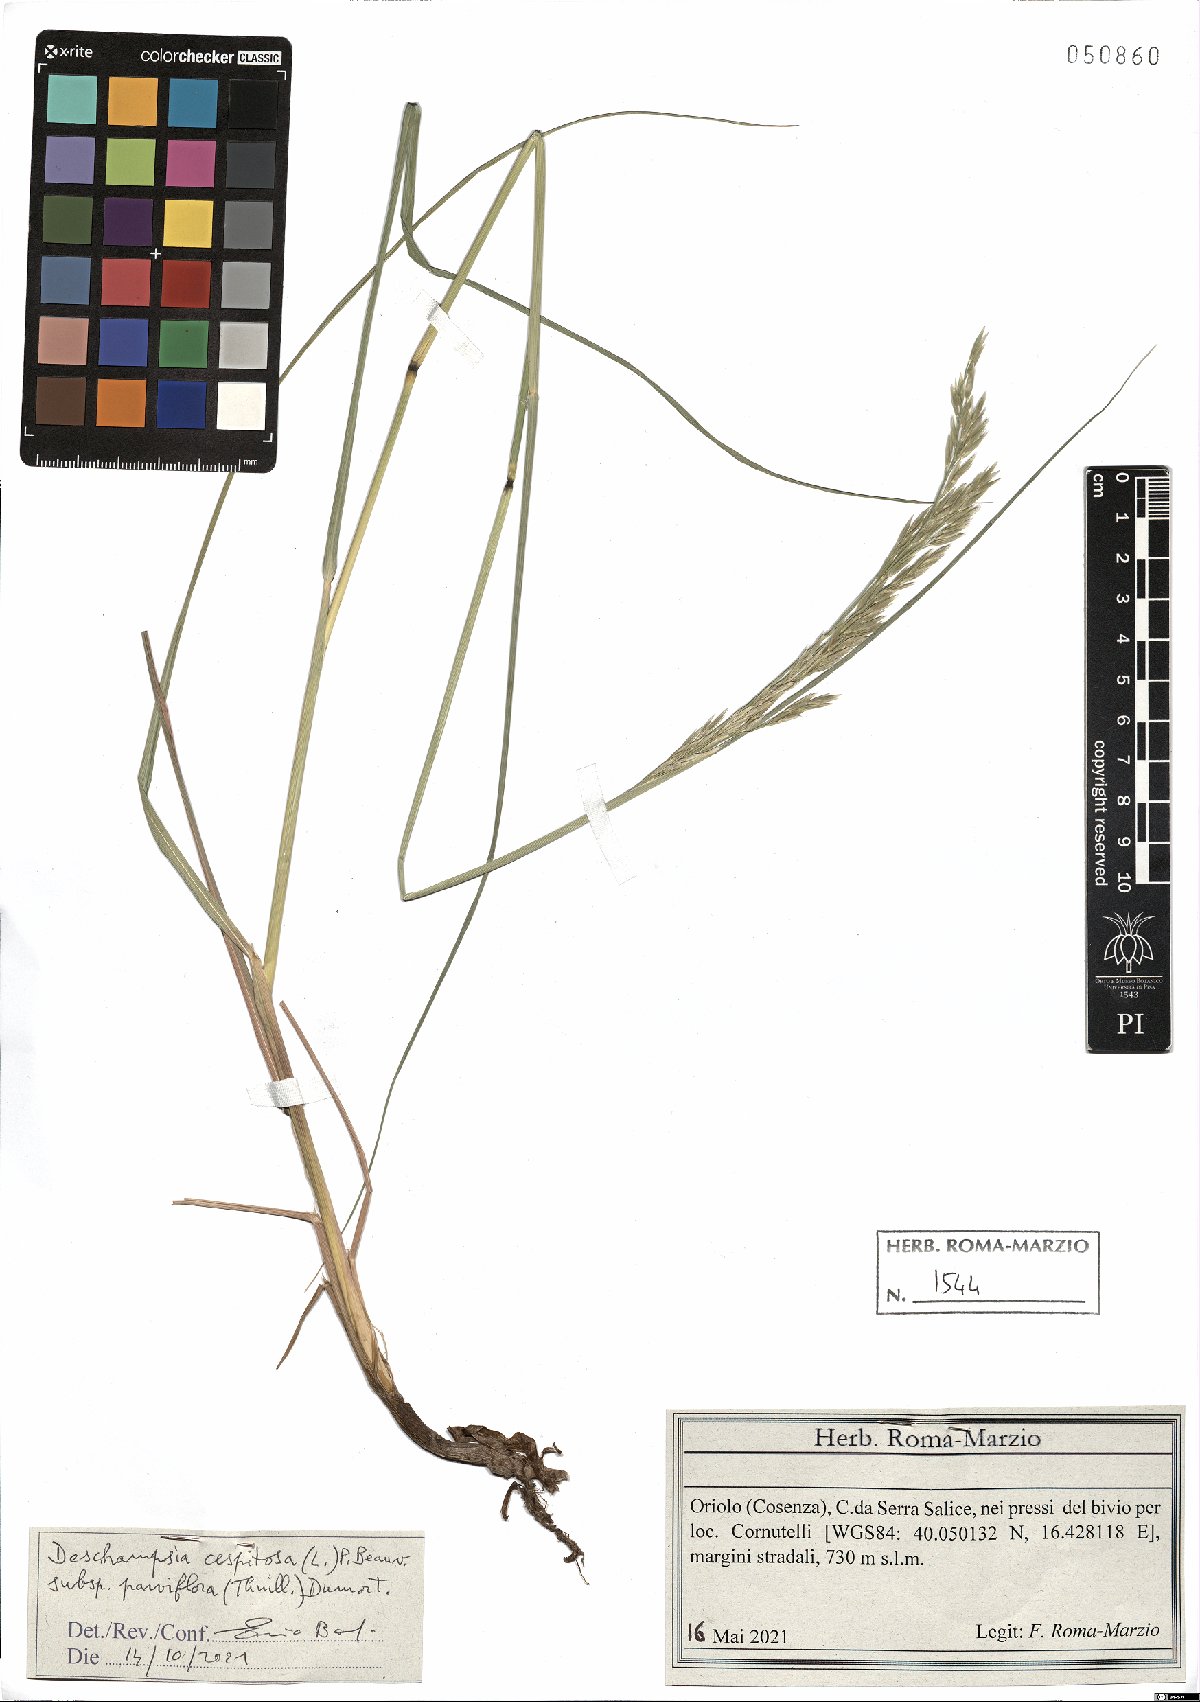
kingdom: Plantae
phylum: Tracheophyta
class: Liliopsida
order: Poales
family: Poaceae
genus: Deschampsia
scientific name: Deschampsia cespitosa
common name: Tufted hair-grass
